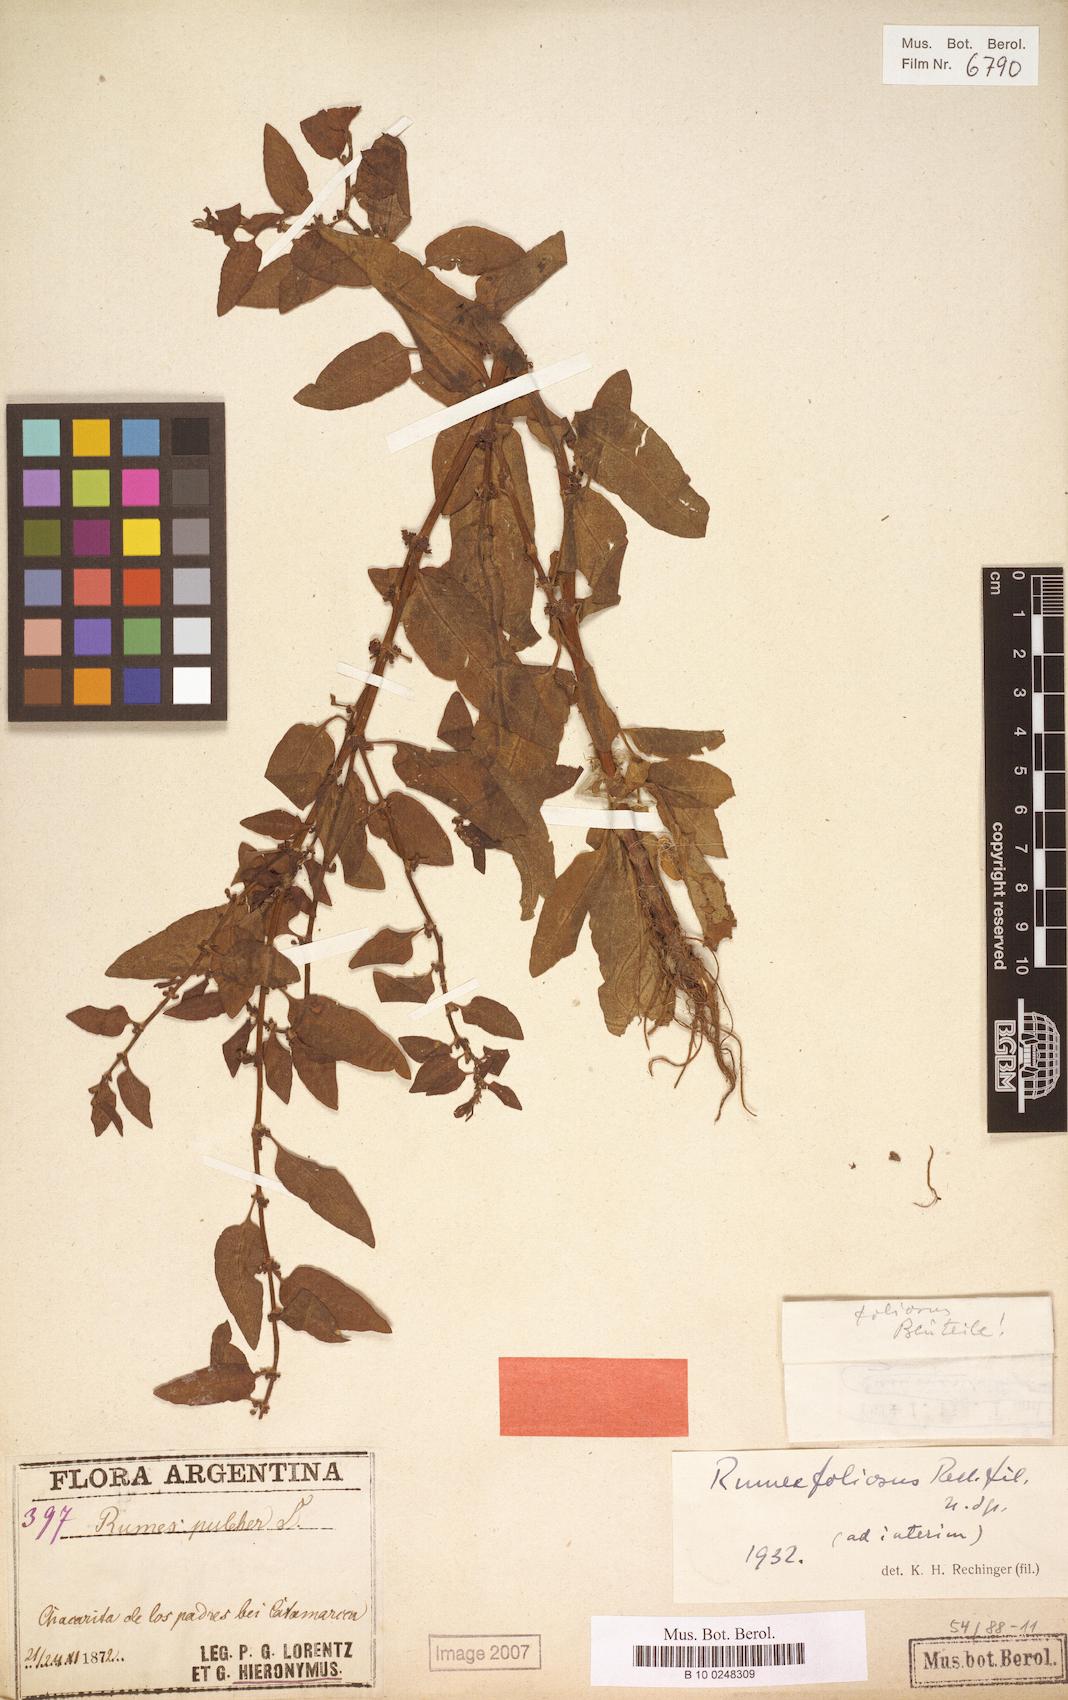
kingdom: Plantae
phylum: Tracheophyta
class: Magnoliopsida
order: Caryophyllales
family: Polygonaceae
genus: Rumex
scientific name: Rumex conglomeratus
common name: Clustered dock
